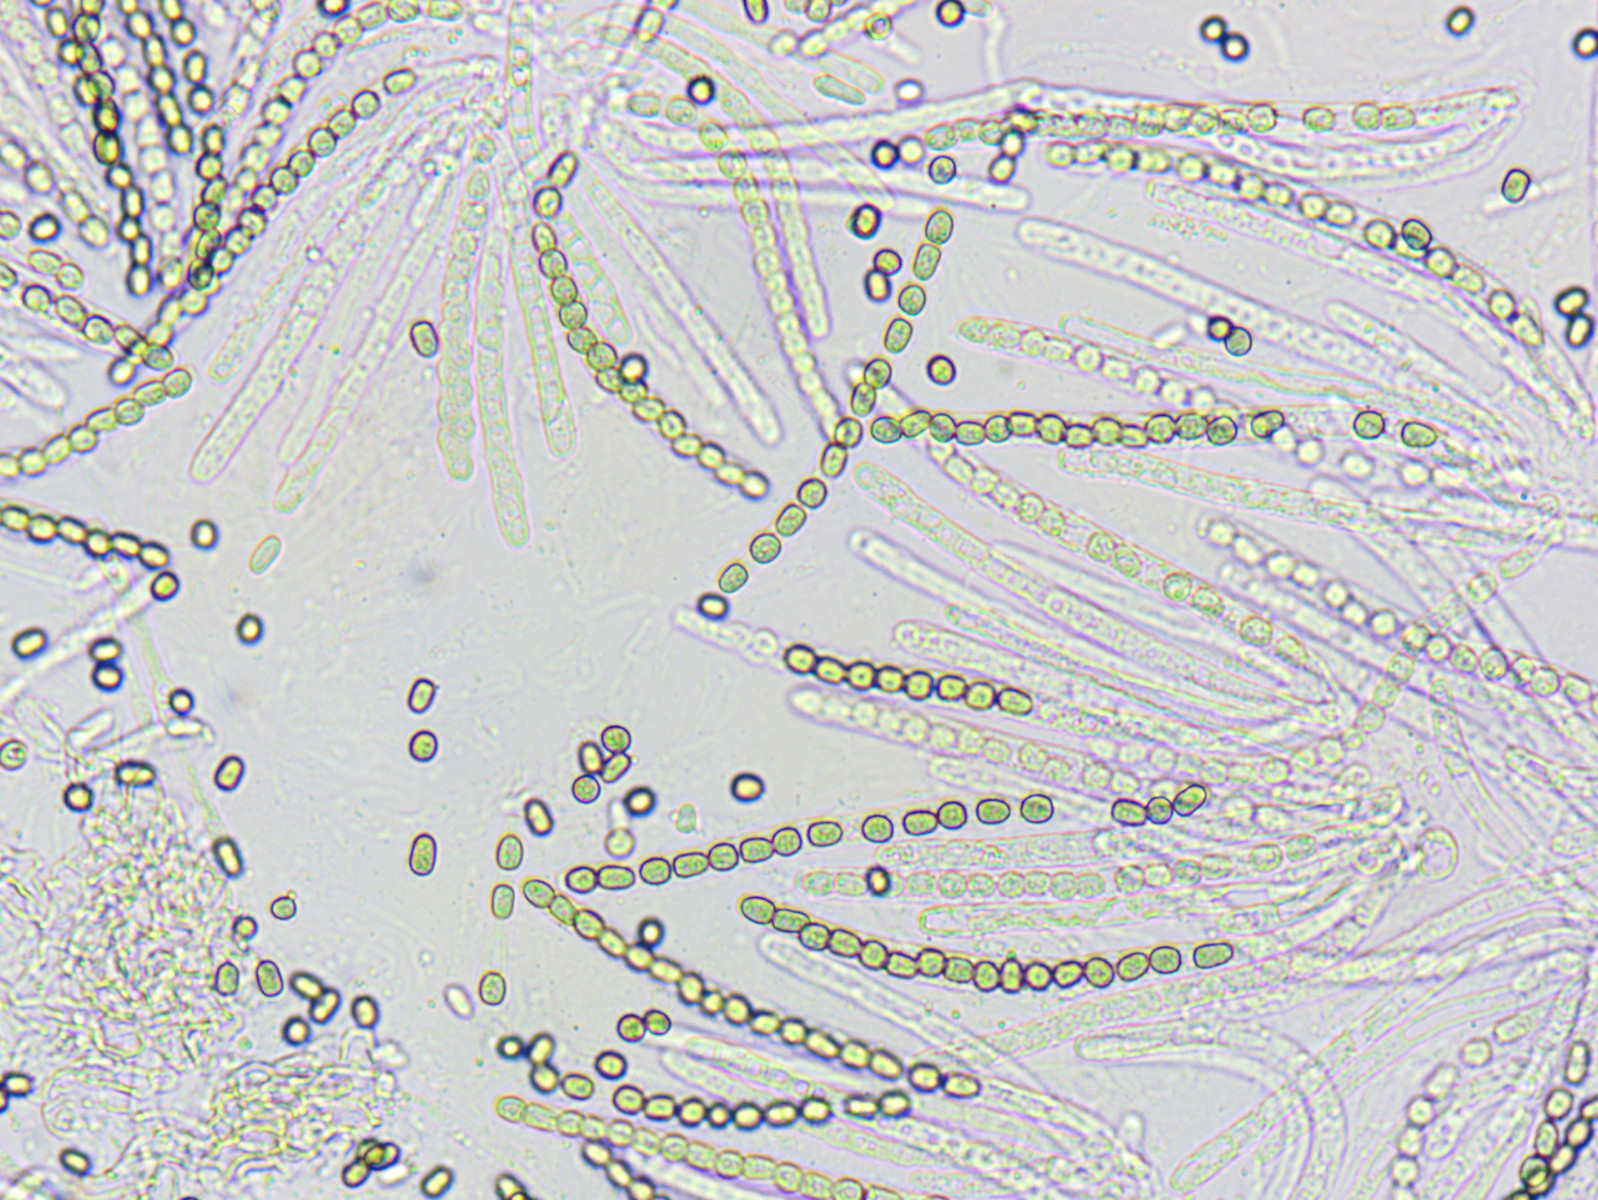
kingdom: Fungi
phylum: Ascomycota
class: Sordariomycetes
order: Hypocreales
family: Hypocreaceae
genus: Trichoderma
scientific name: Trichoderma strictipile
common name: grønprikket kødkerne
